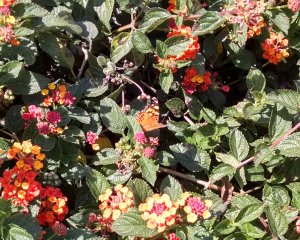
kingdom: Animalia
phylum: Arthropoda
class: Insecta
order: Lepidoptera
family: Nymphalidae
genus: Vanessa
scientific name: Vanessa annabella
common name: West Coast Lady
